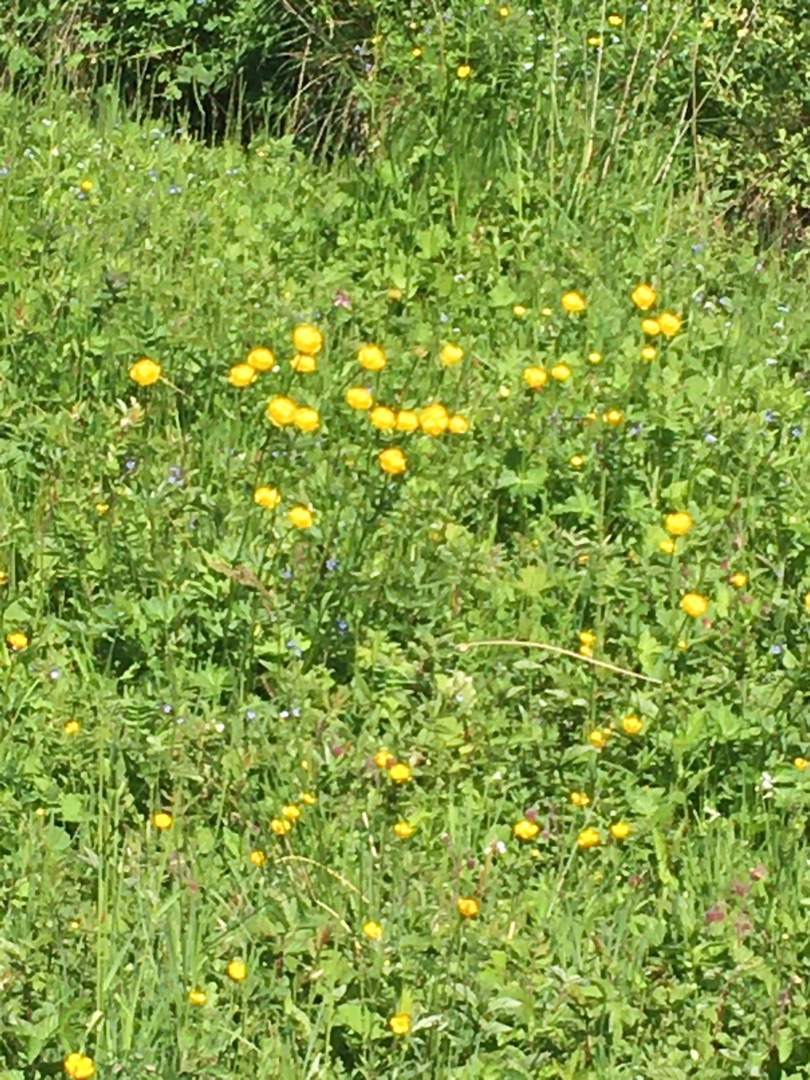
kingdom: Plantae
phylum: Tracheophyta
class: Magnoliopsida
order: Ranunculales
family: Ranunculaceae
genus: Trollius
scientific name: Trollius europaeus
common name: Engblomme
